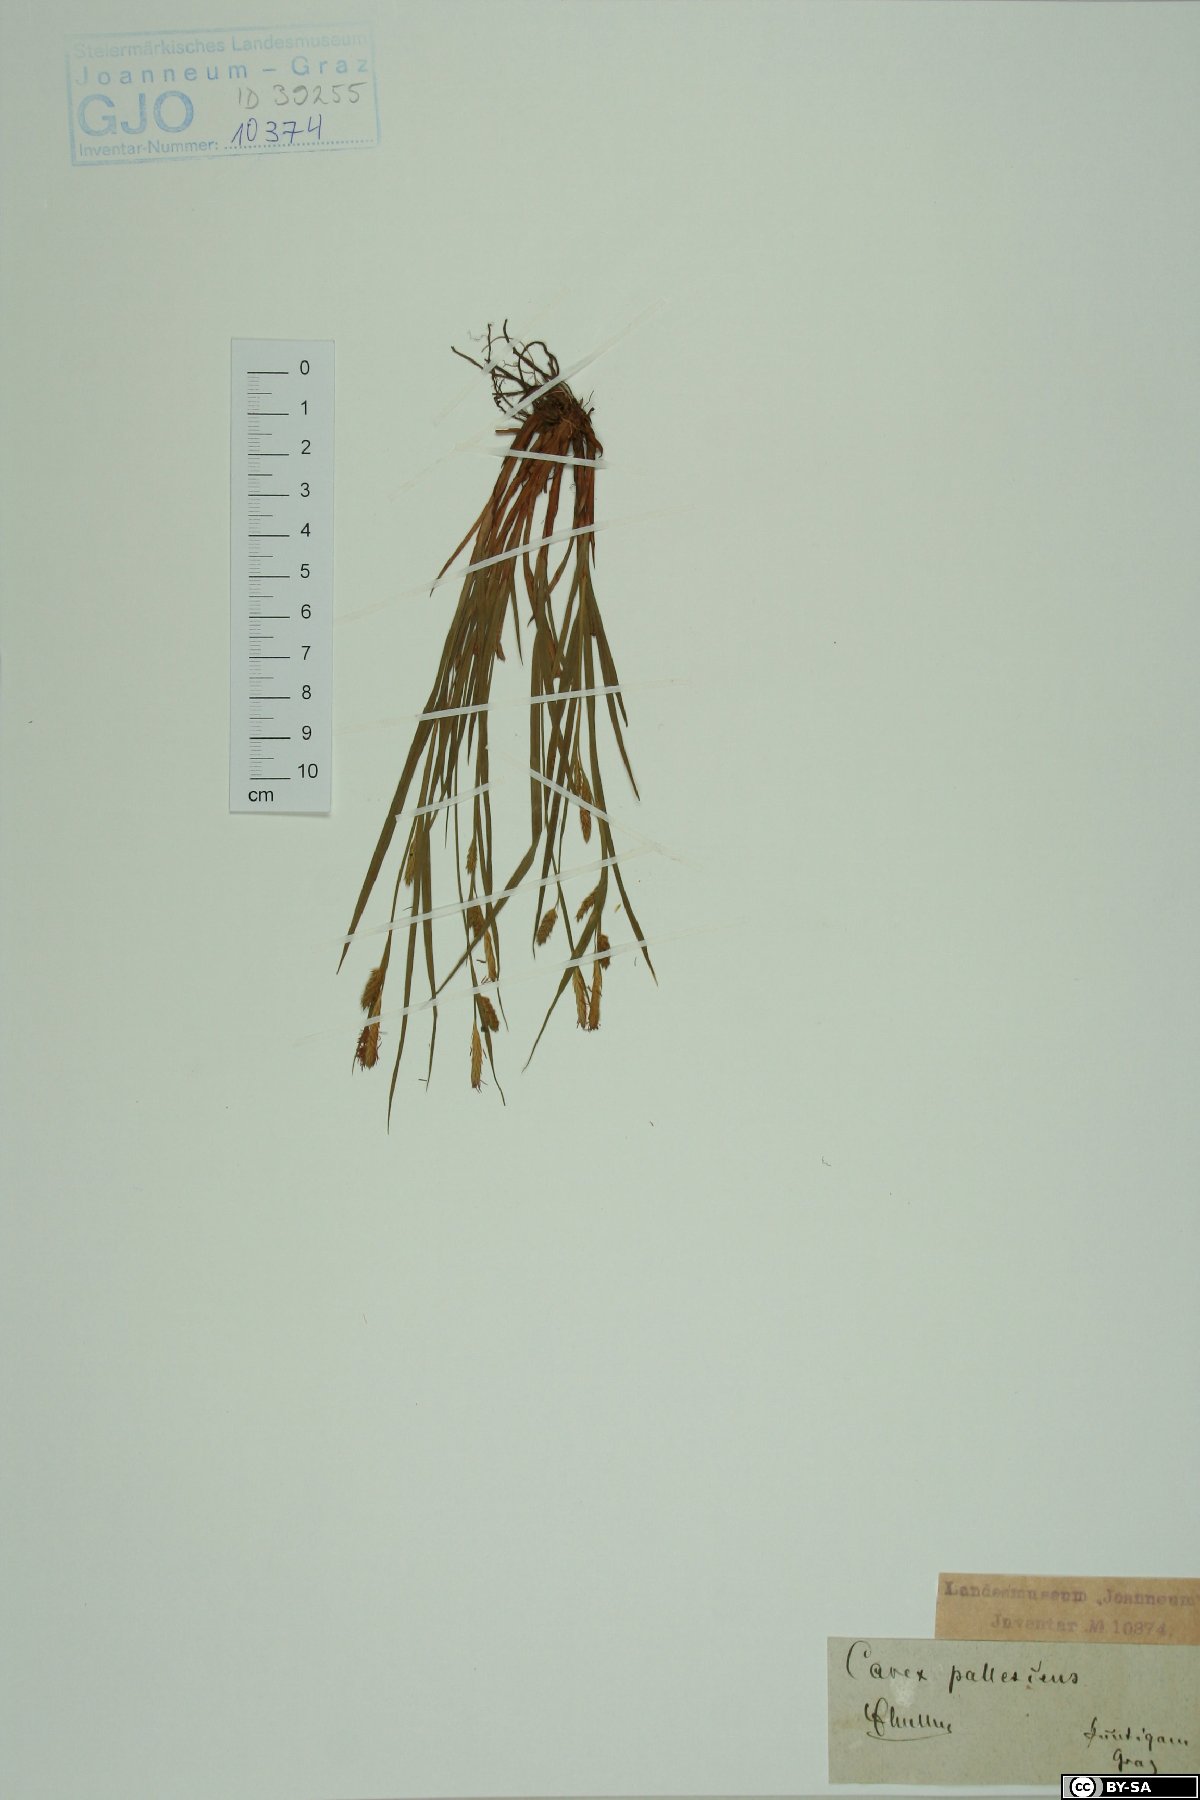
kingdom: Plantae
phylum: Tracheophyta
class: Liliopsida
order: Poales
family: Cyperaceae
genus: Carex
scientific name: Carex pallescens
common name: Pale sedge
